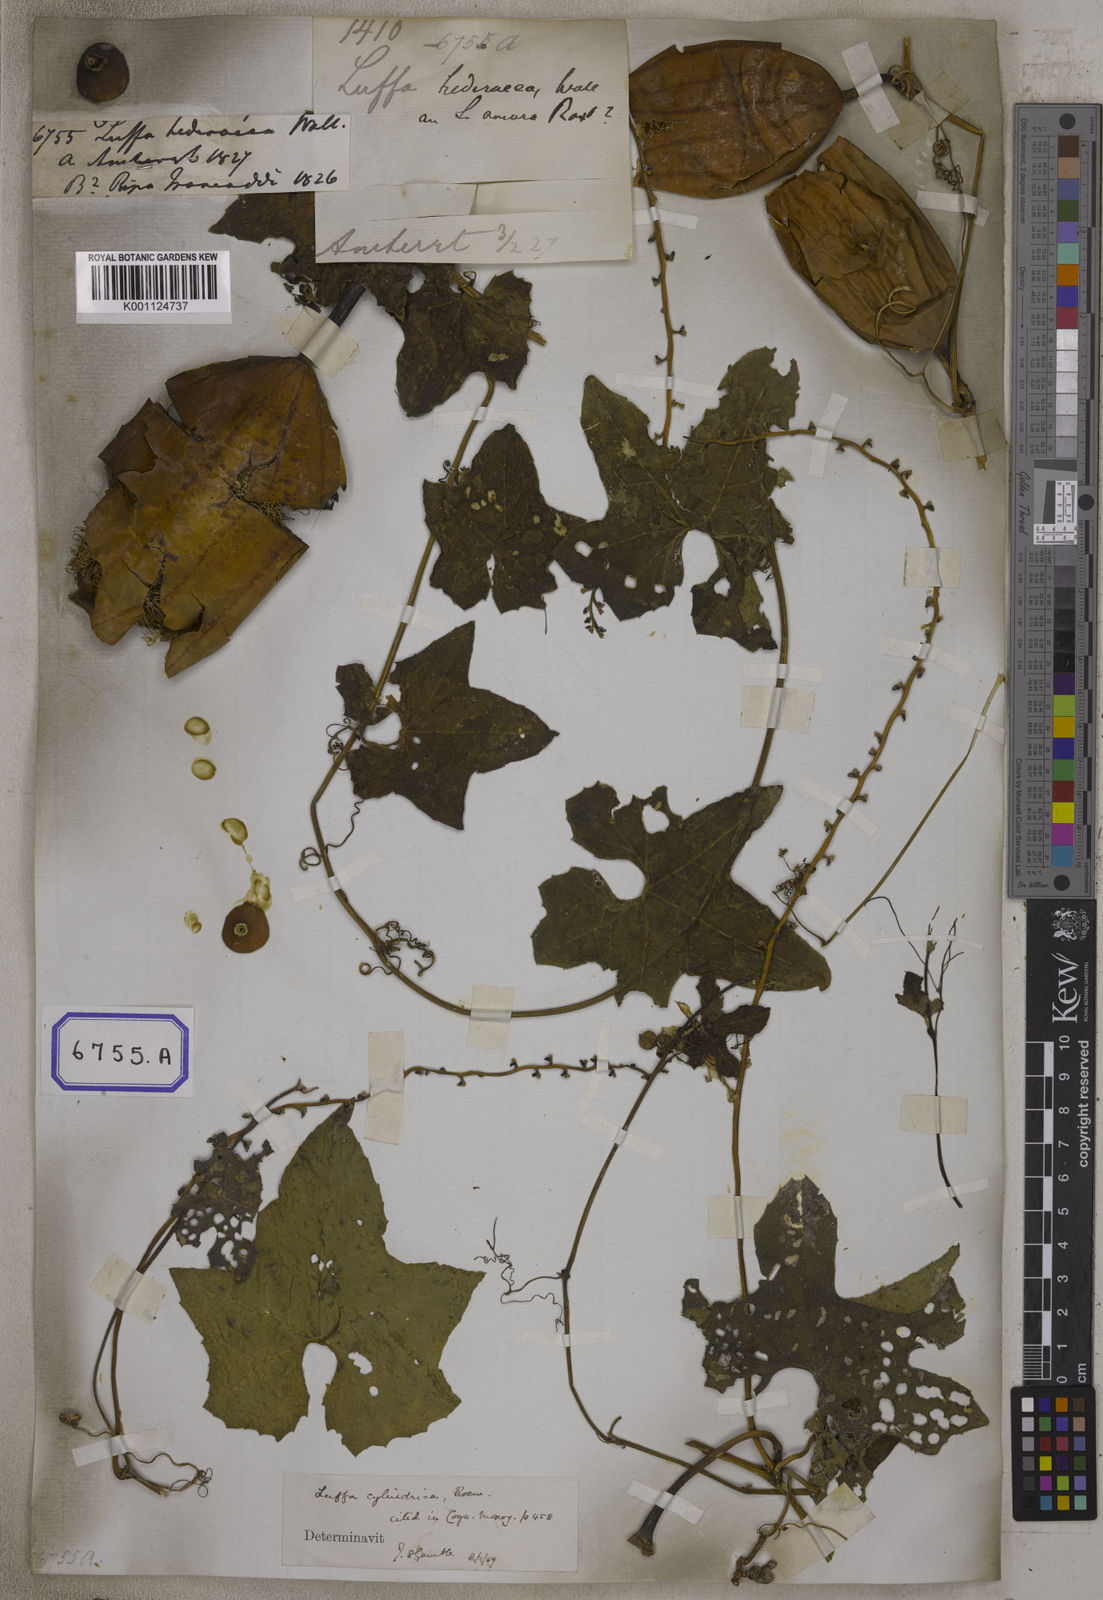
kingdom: Plantae
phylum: Tracheophyta
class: Magnoliopsida
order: Cucurbitales
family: Cucurbitaceae
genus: Cucumis
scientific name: Cucumis melo
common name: Melon
